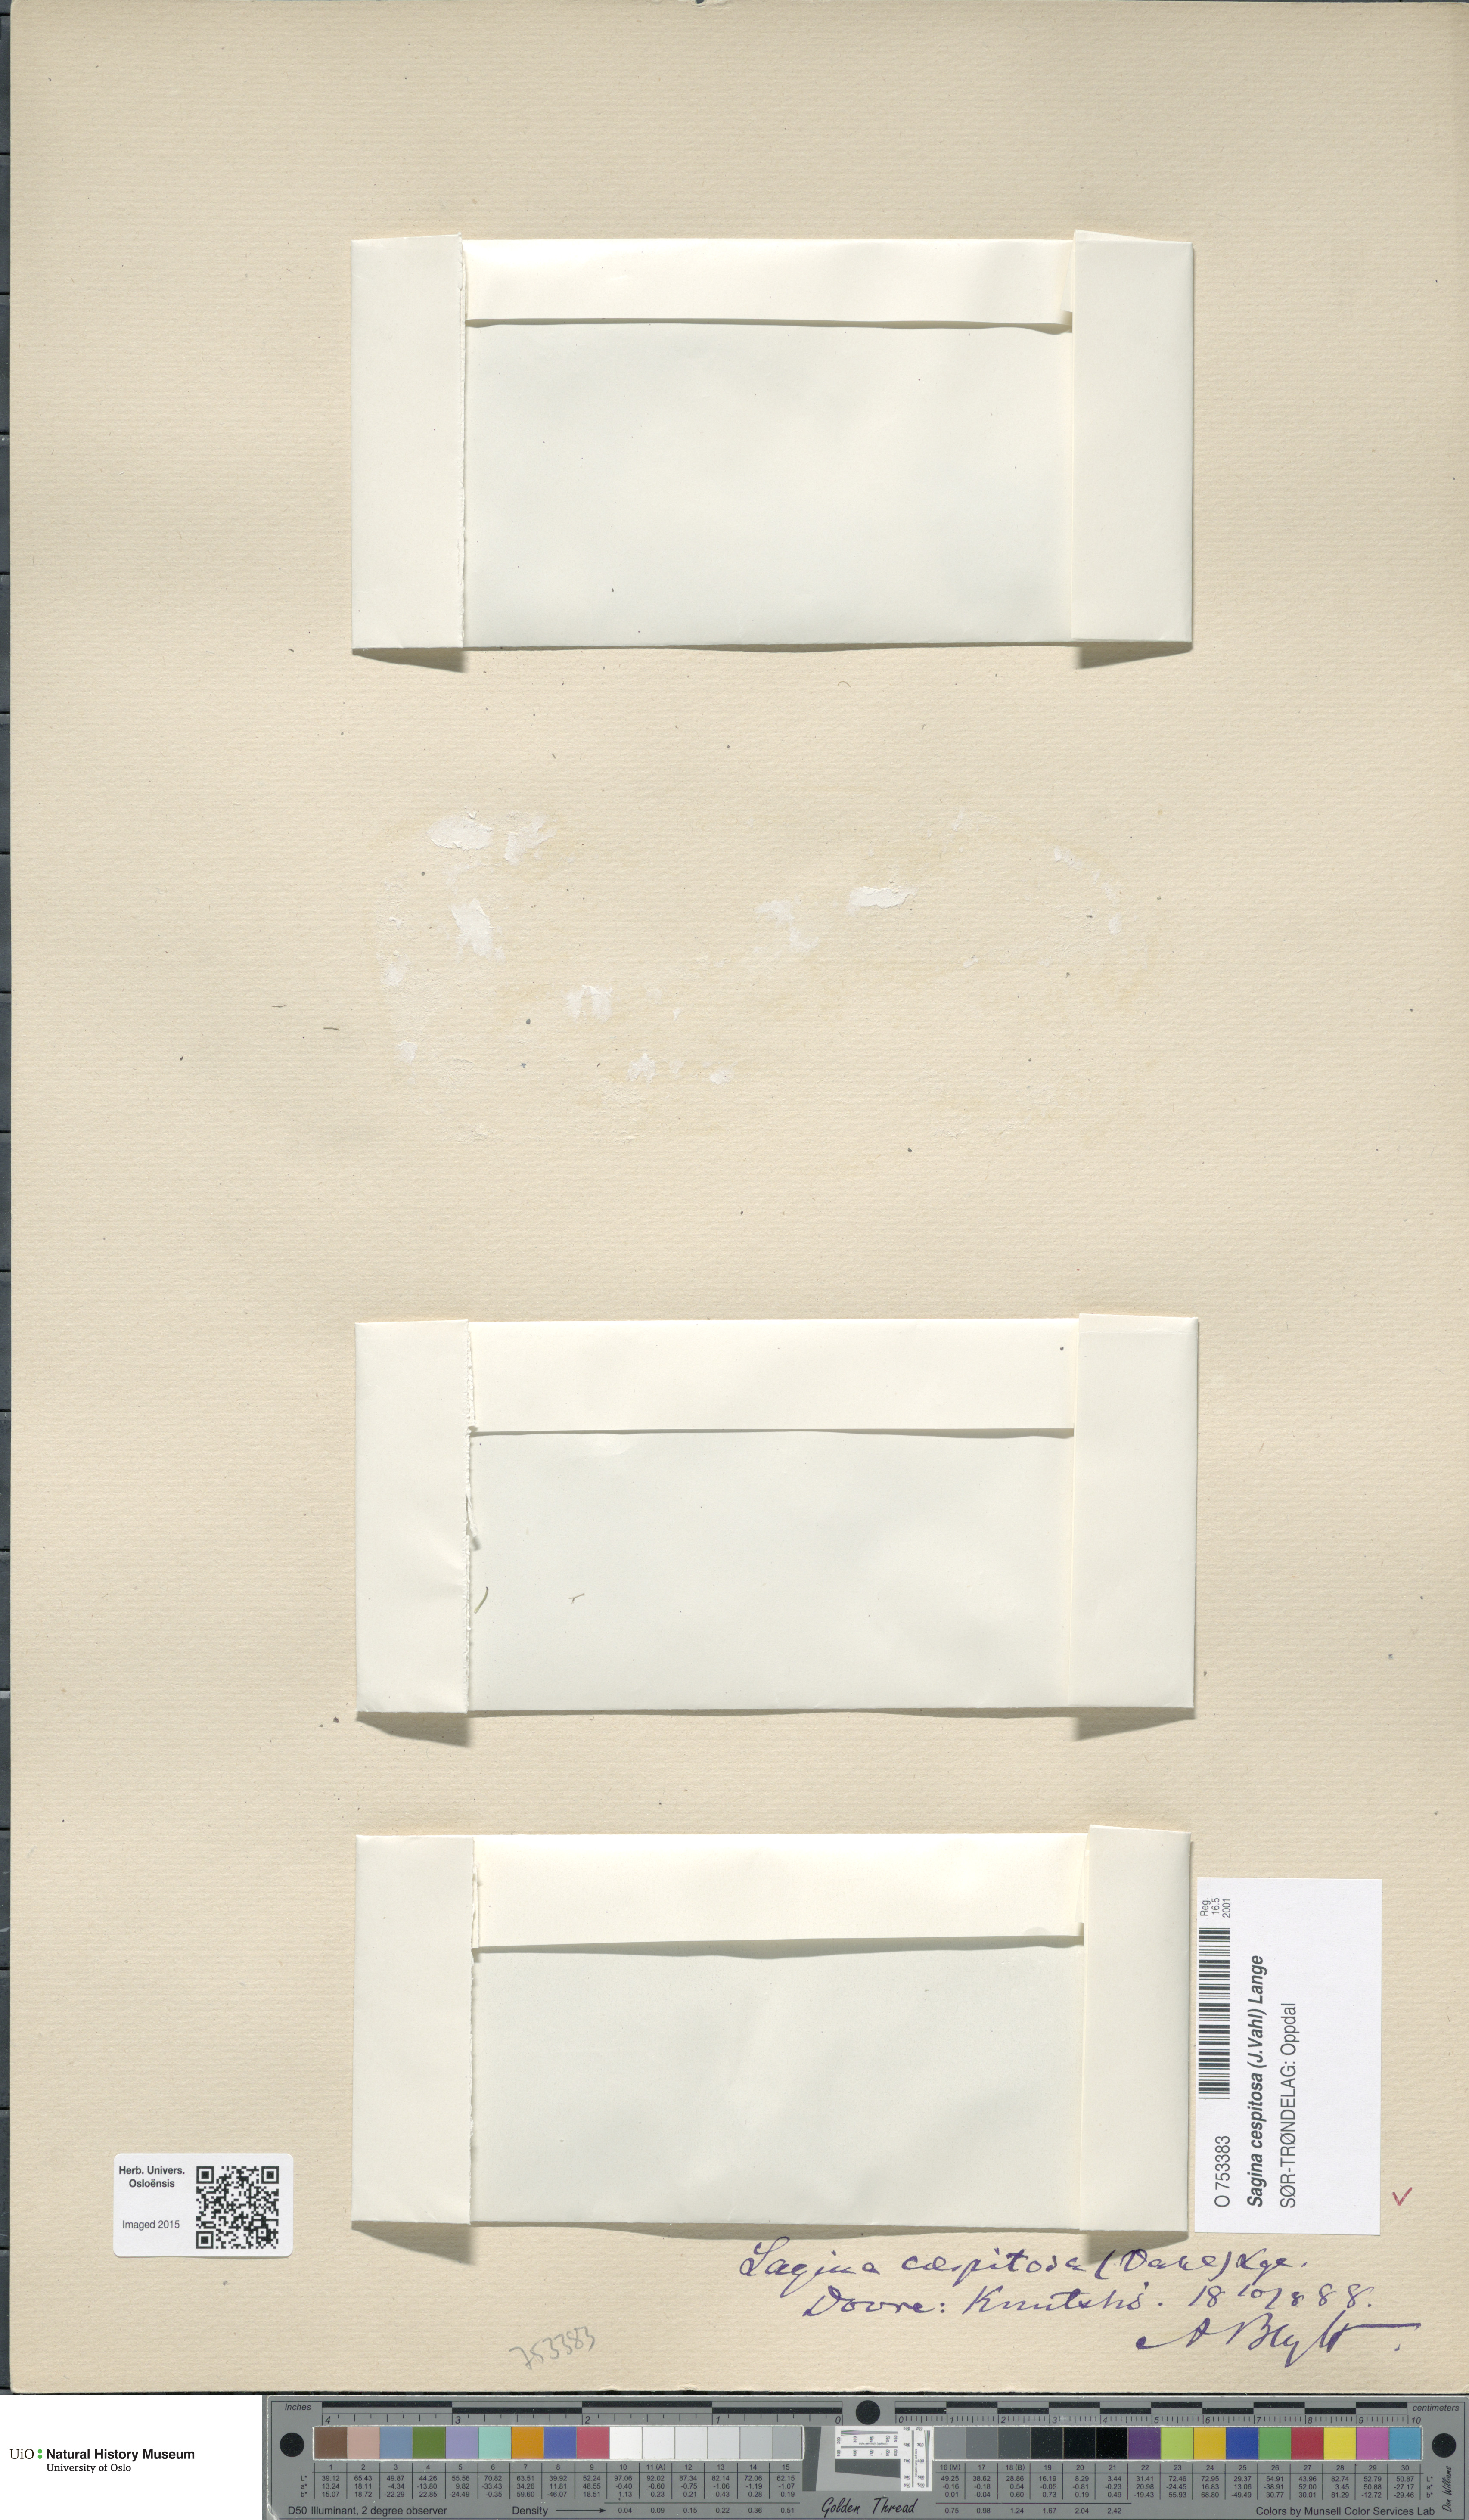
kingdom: Plantae
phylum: Tracheophyta
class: Magnoliopsida
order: Caryophyllales
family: Caryophyllaceae
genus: Sagina
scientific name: Sagina caespitosa
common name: Tufted pearlwort
